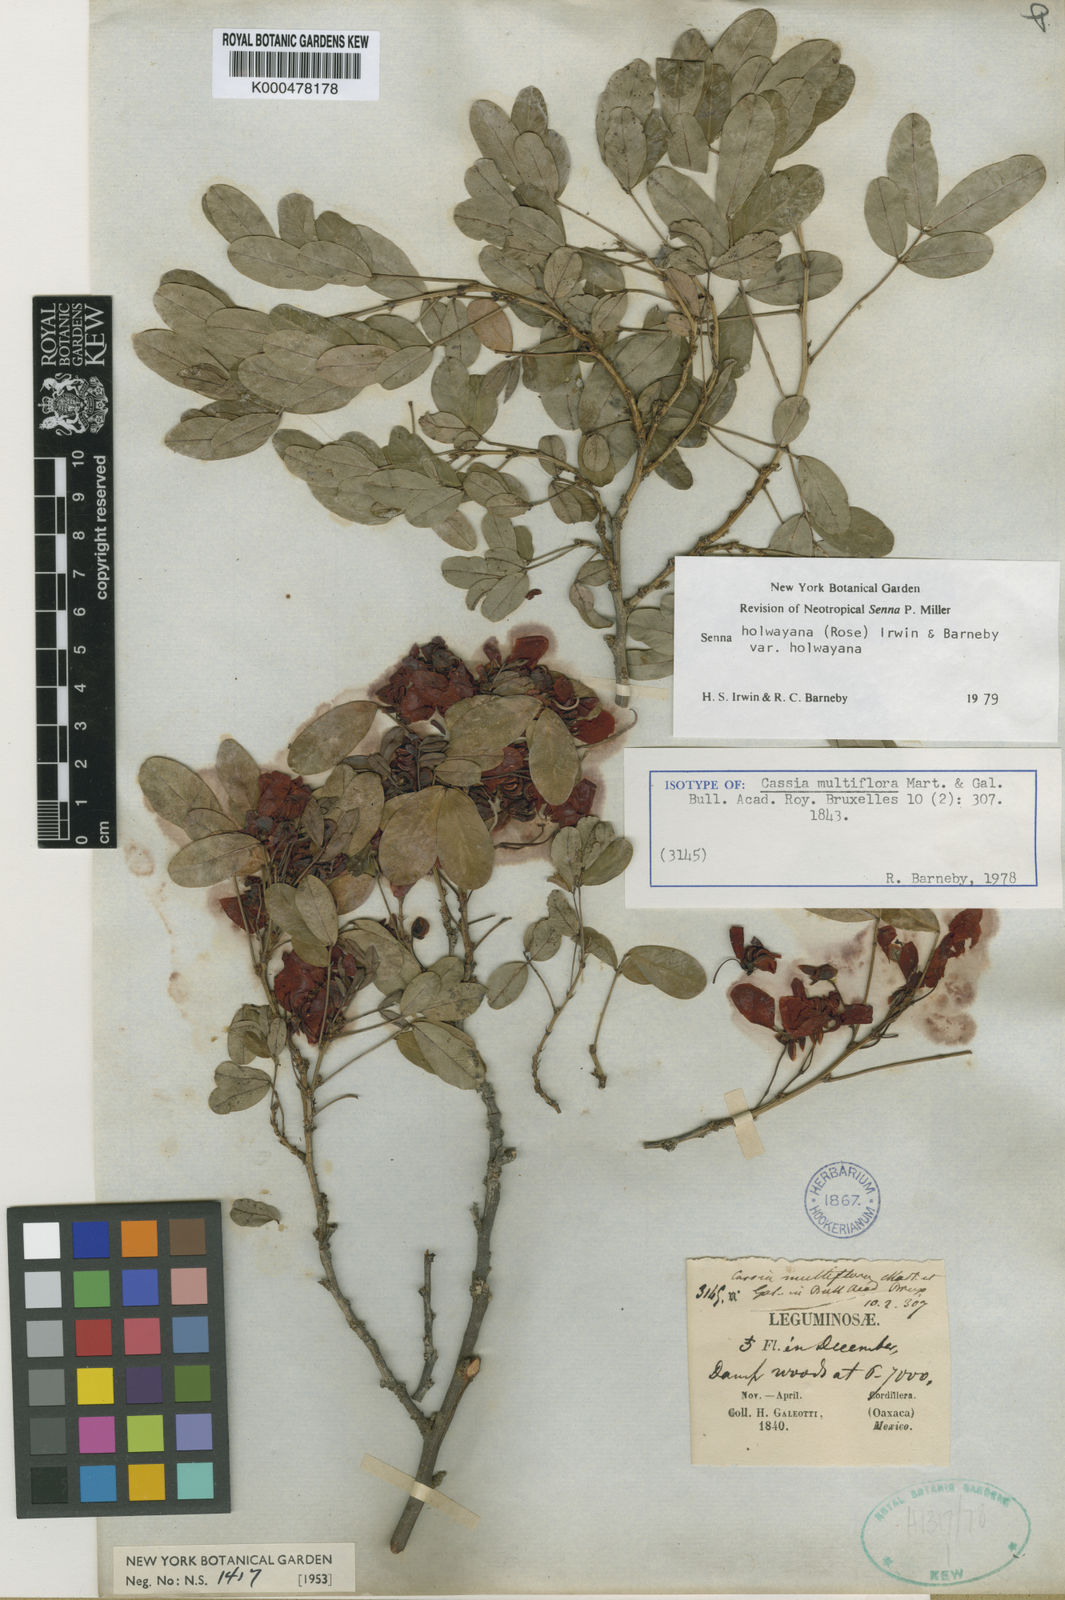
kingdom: Plantae
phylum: Tracheophyta
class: Magnoliopsida
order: Fabales
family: Fabaceae
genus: Senna
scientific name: Senna holwayana
